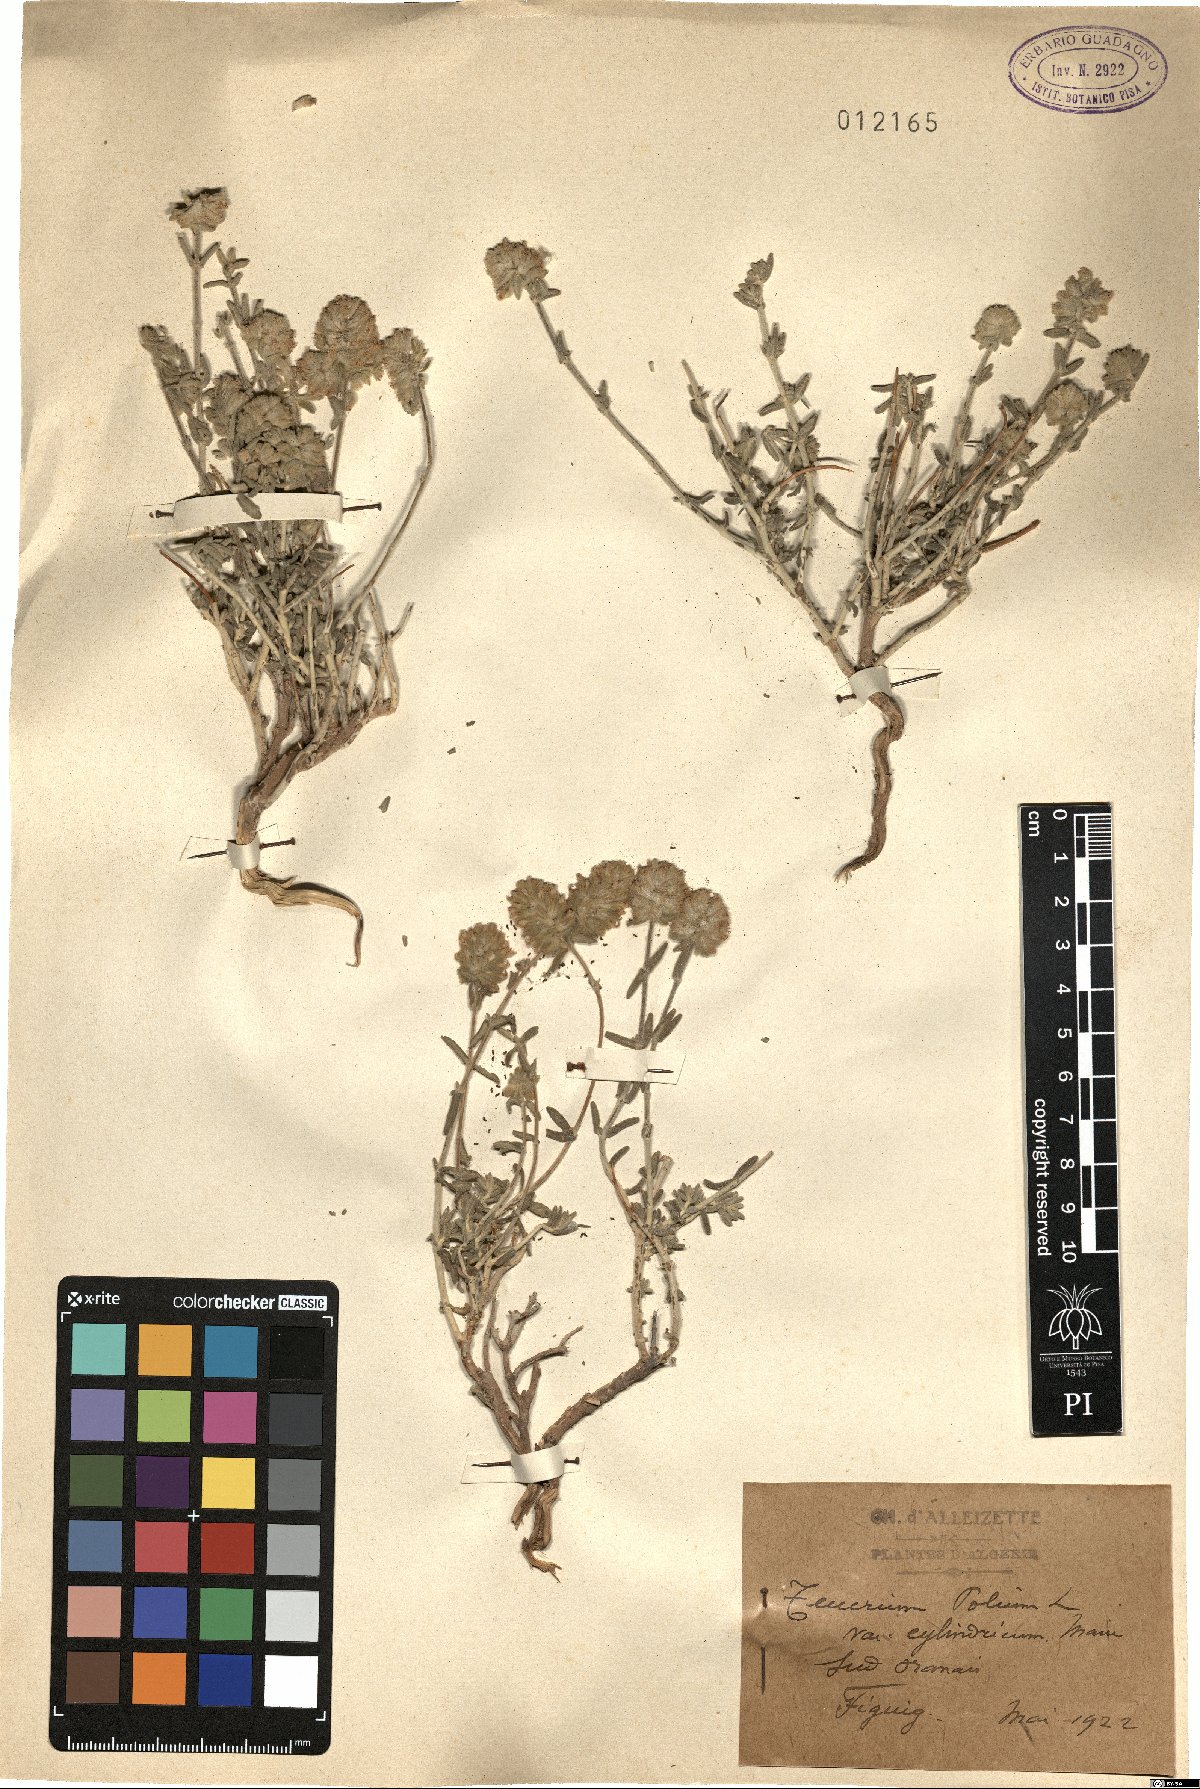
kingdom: Plantae
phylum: Tracheophyta
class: Magnoliopsida
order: Lamiales
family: Lamiaceae
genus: Teucrium
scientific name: Teucrium aureocandidum
